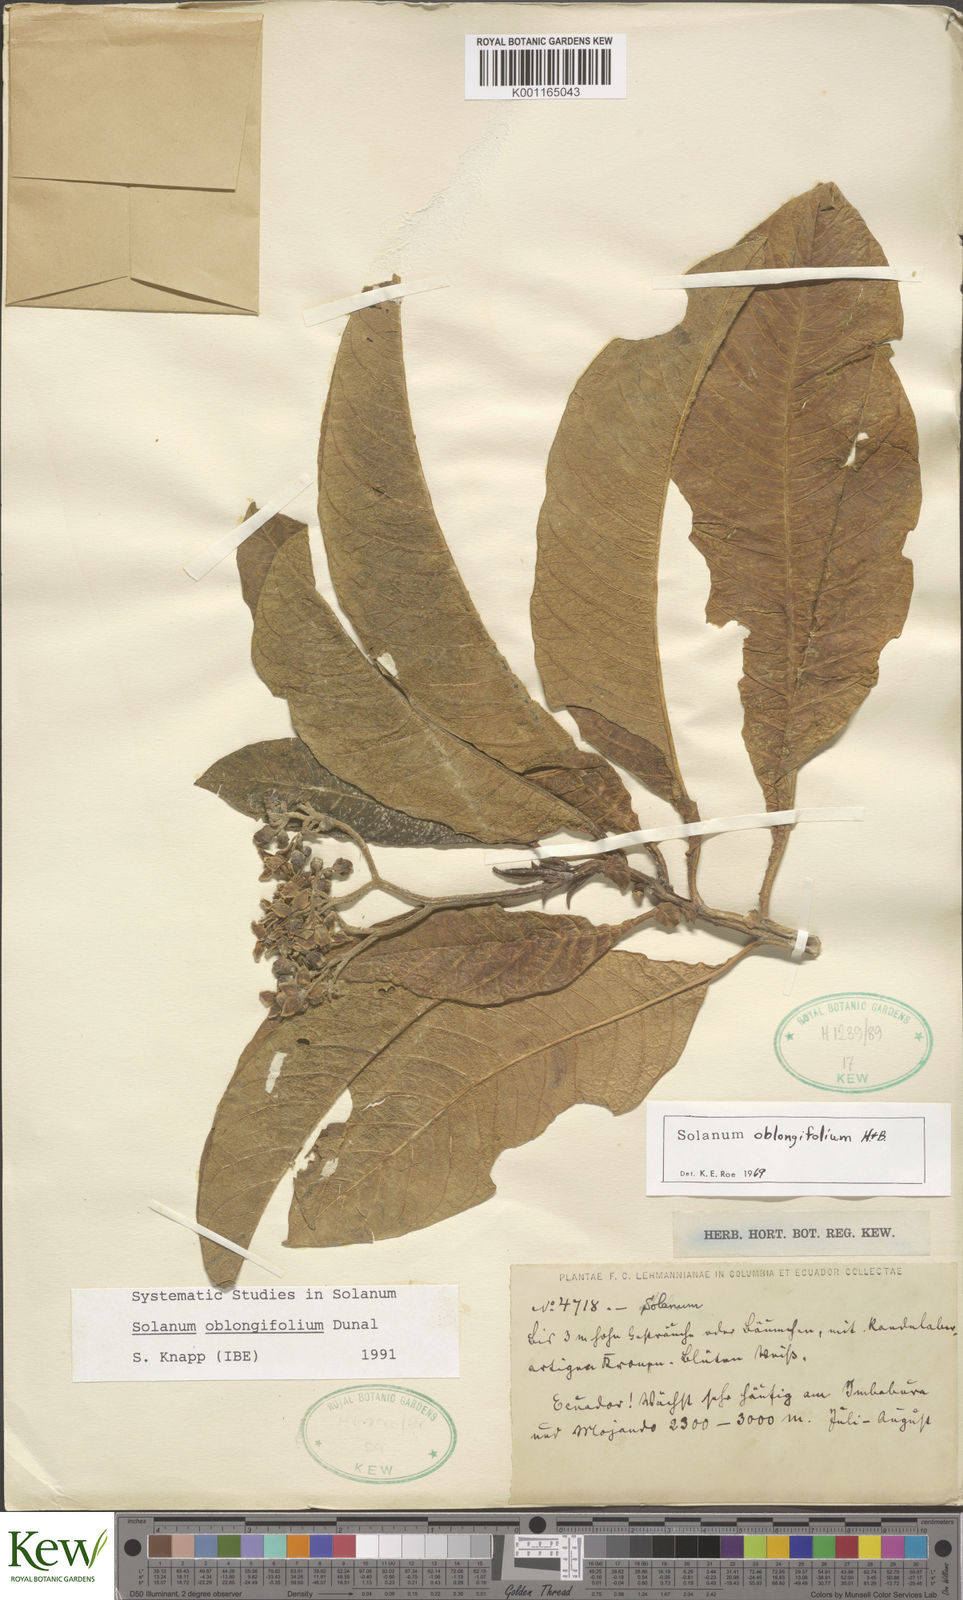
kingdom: Plantae
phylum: Tracheophyta
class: Magnoliopsida
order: Solanales
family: Solanaceae
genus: Solanum
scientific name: Solanum oblongifolium
